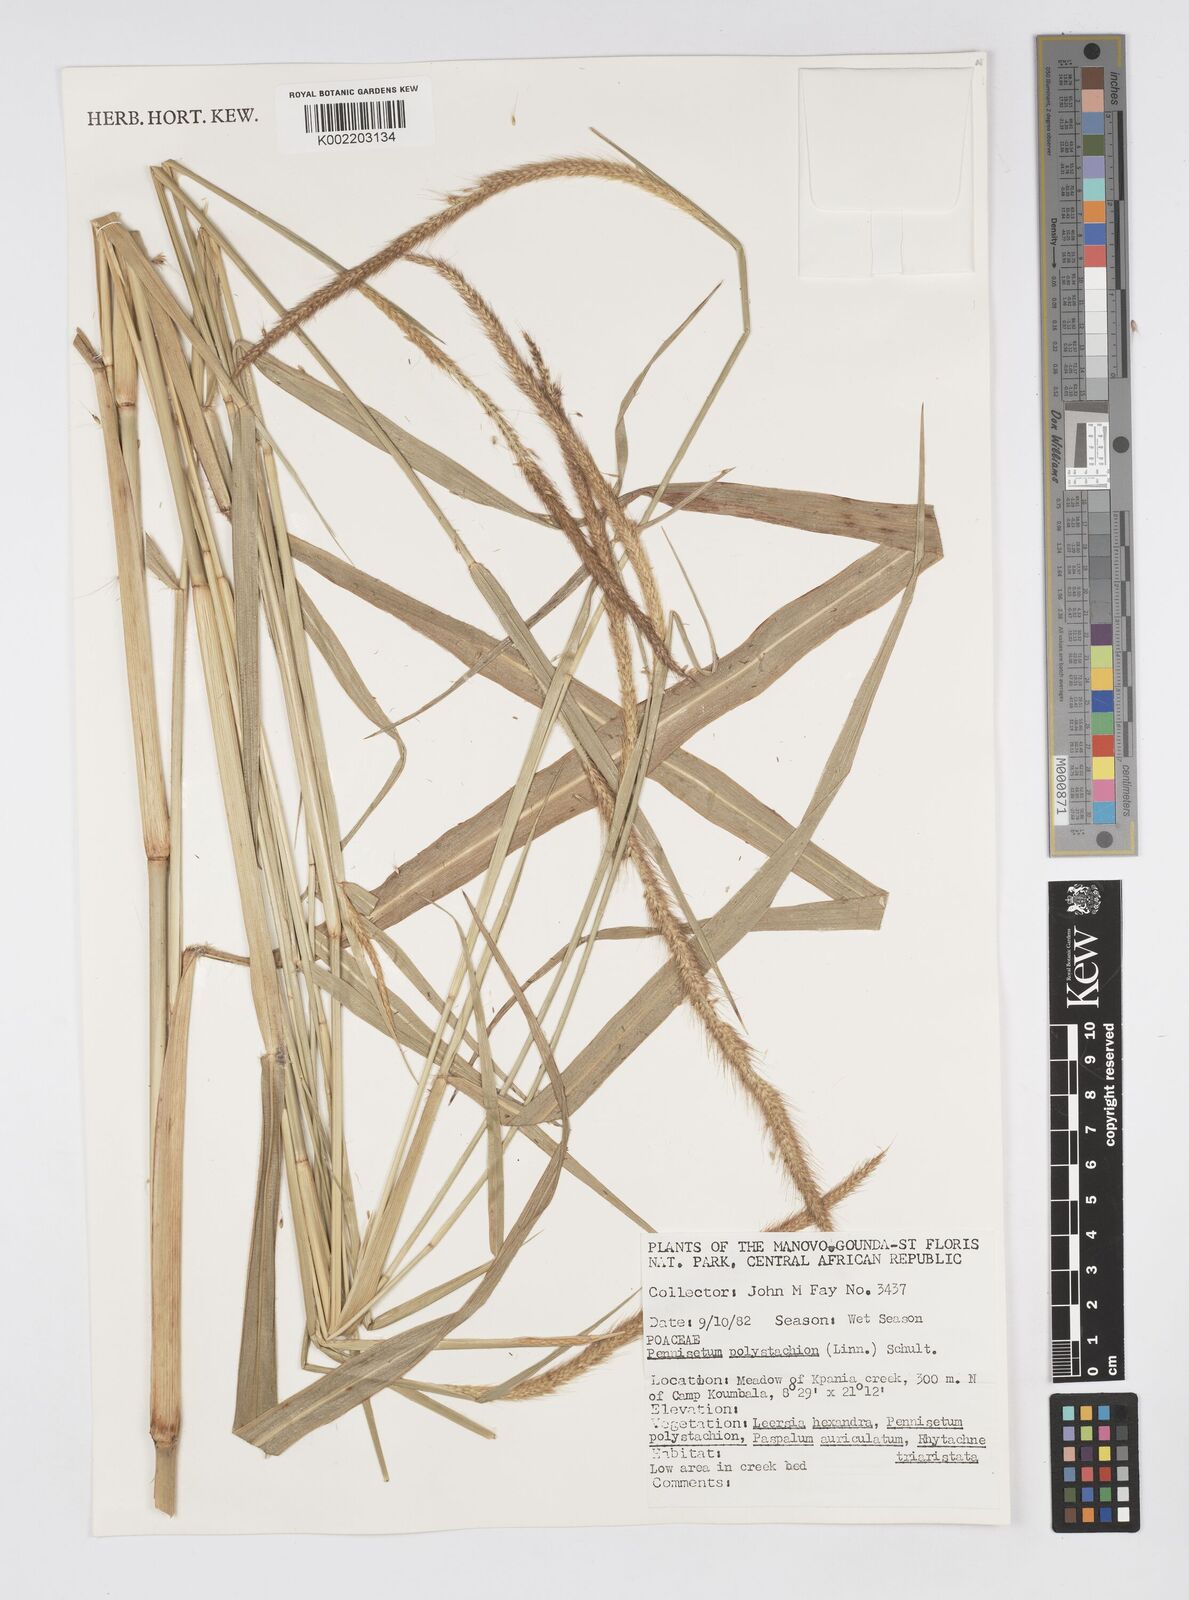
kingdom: Plantae
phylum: Tracheophyta
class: Liliopsida
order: Poales
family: Poaceae
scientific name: Poaceae
